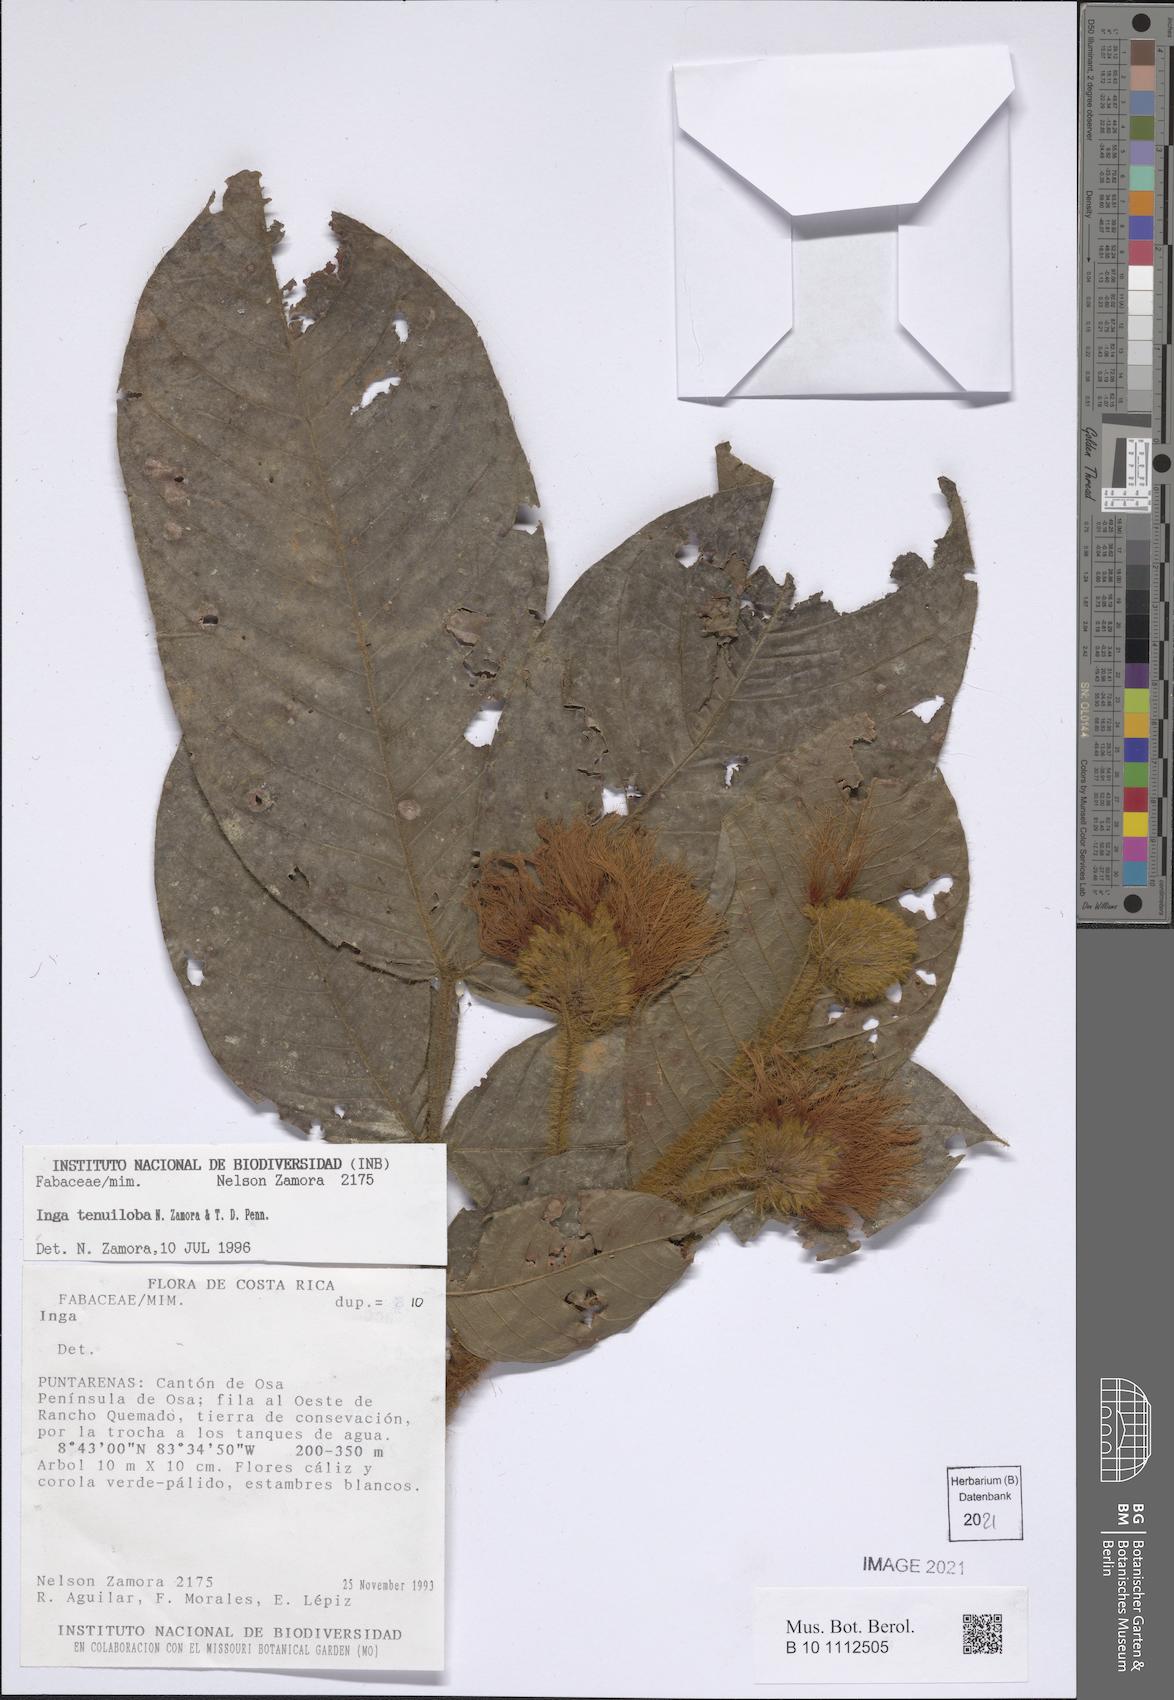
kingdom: Plantae
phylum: Tracheophyta
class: Magnoliopsida
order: Fabales
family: Fabaceae
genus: Inga
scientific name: Inga tenuiloba
